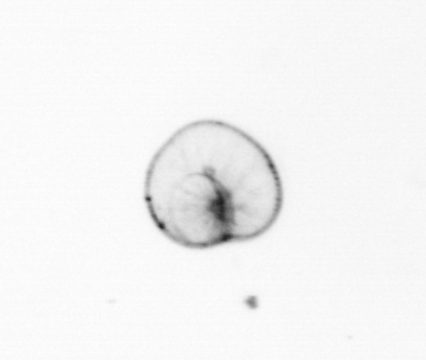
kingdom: Chromista
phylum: Myzozoa
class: Dinophyceae
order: Noctilucales
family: Noctilucaceae
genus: Noctiluca
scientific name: Noctiluca scintillans
